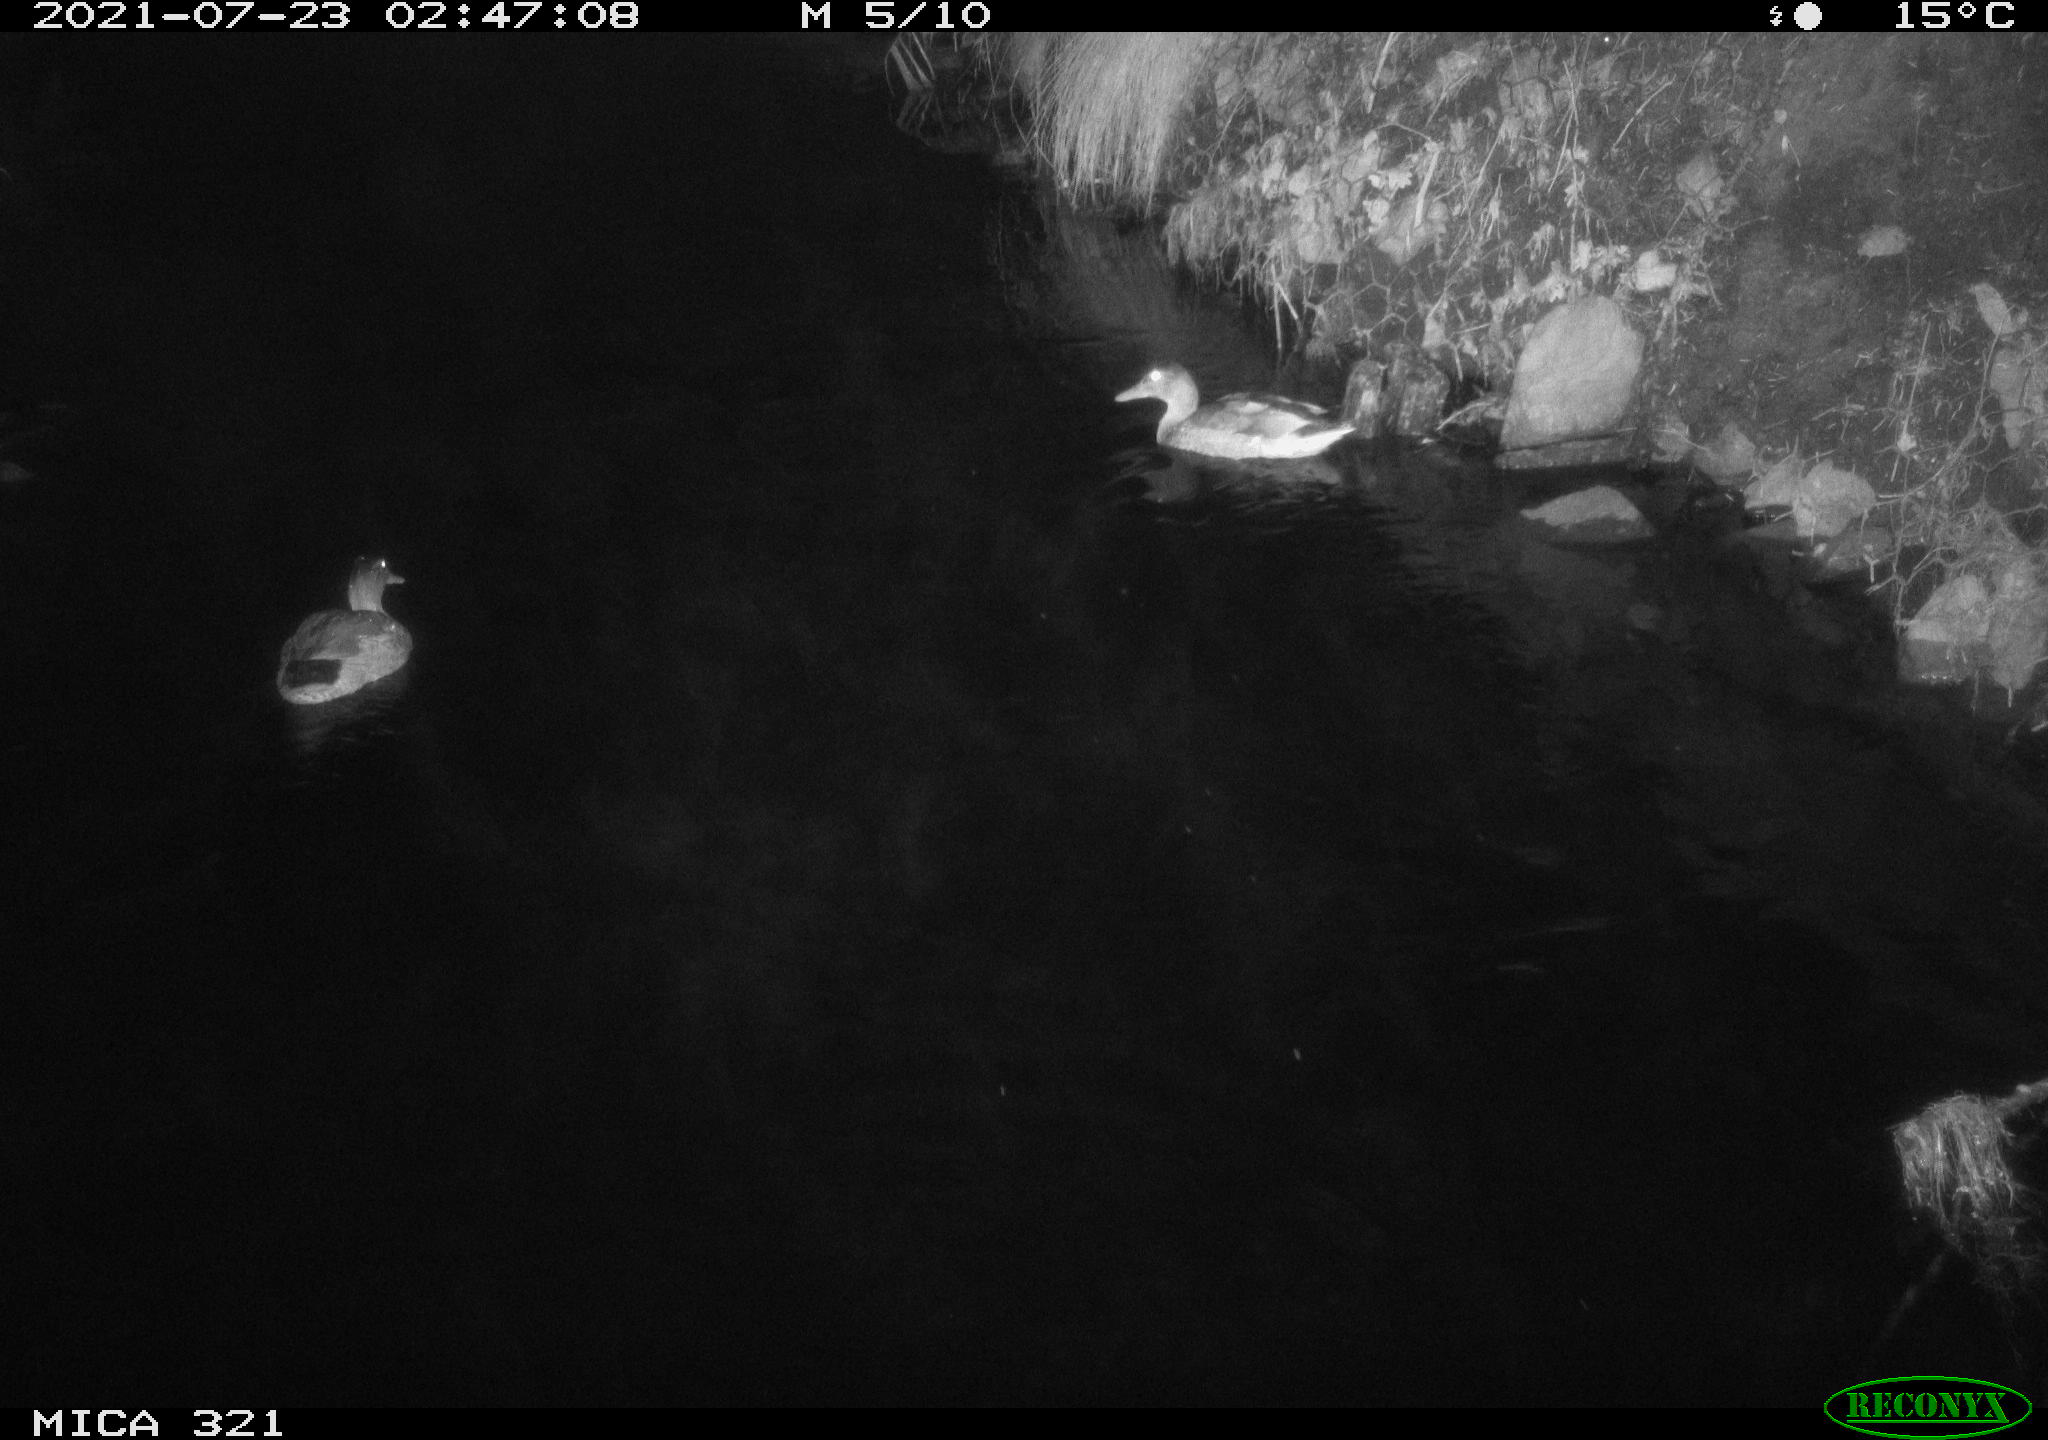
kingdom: Animalia
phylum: Chordata
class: Aves
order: Anseriformes
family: Anatidae
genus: Anas
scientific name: Anas platyrhynchos
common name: Mallard
